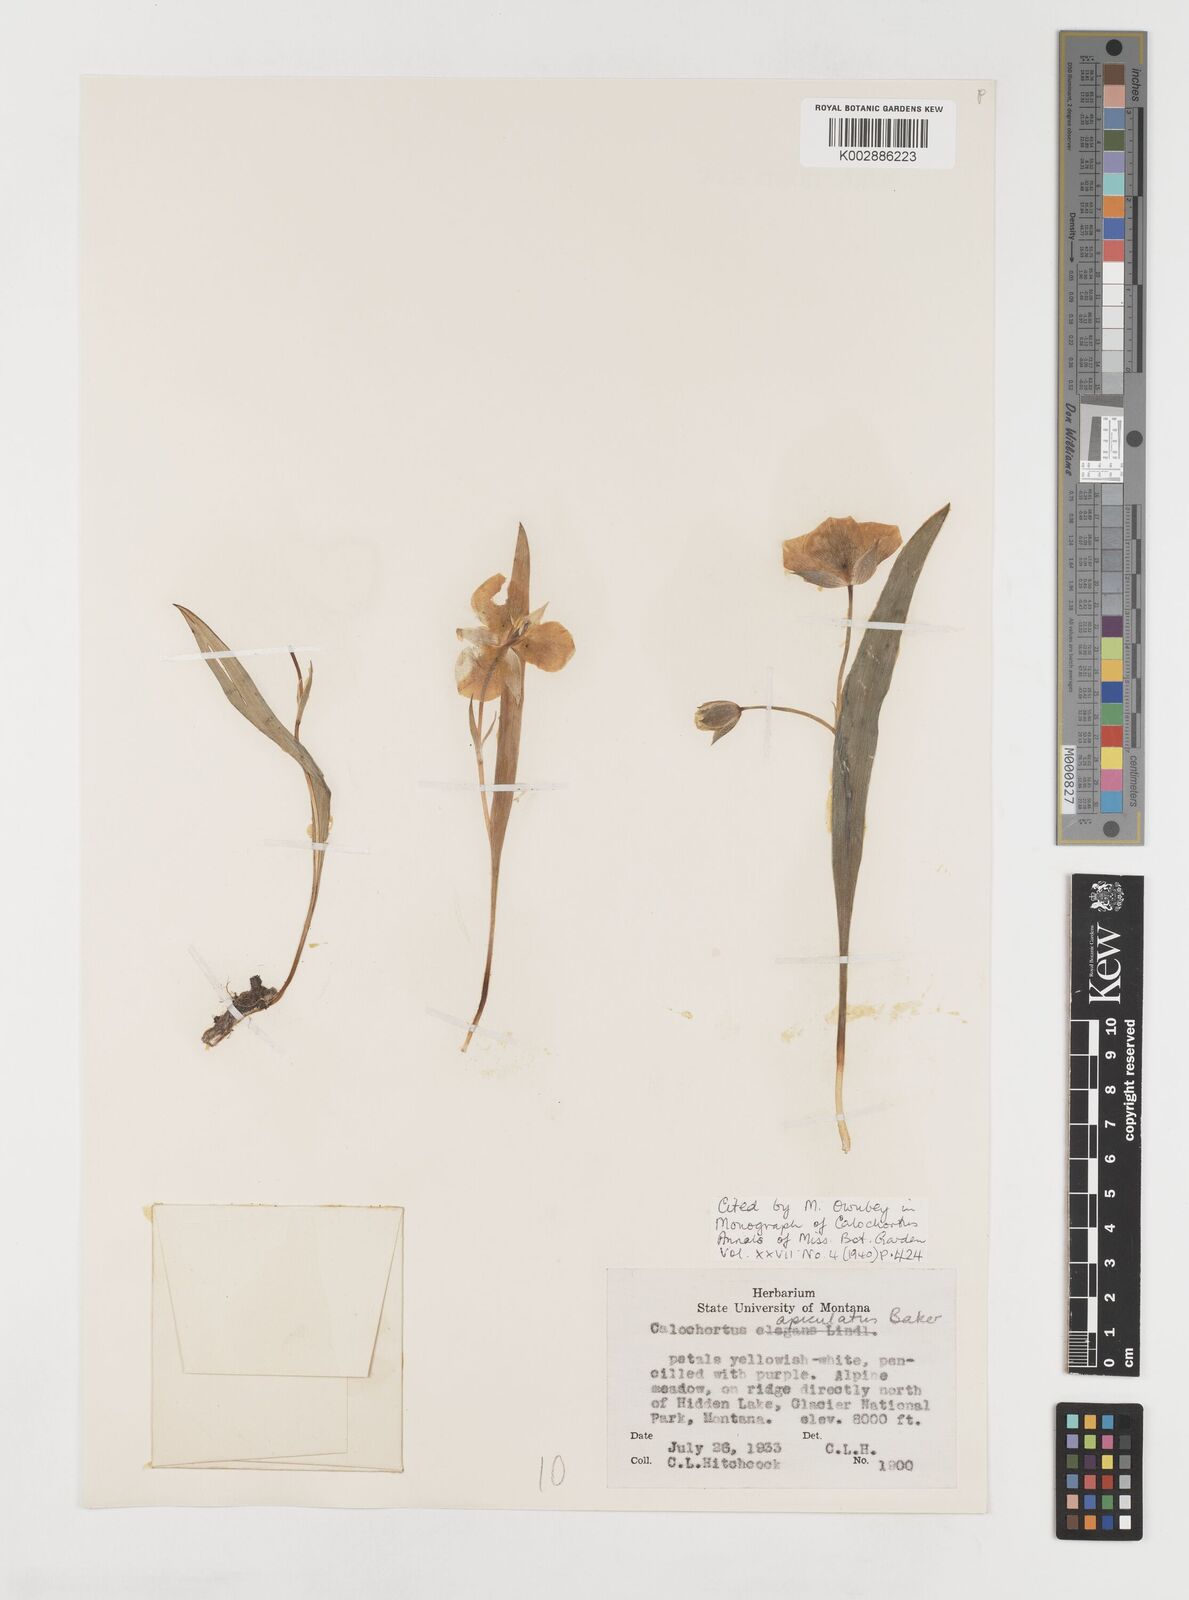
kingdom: Plantae
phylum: Tracheophyta
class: Liliopsida
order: Liliales
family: Liliaceae
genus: Calochortus
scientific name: Calochortus apiculatus
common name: Baker's mariposa lily
